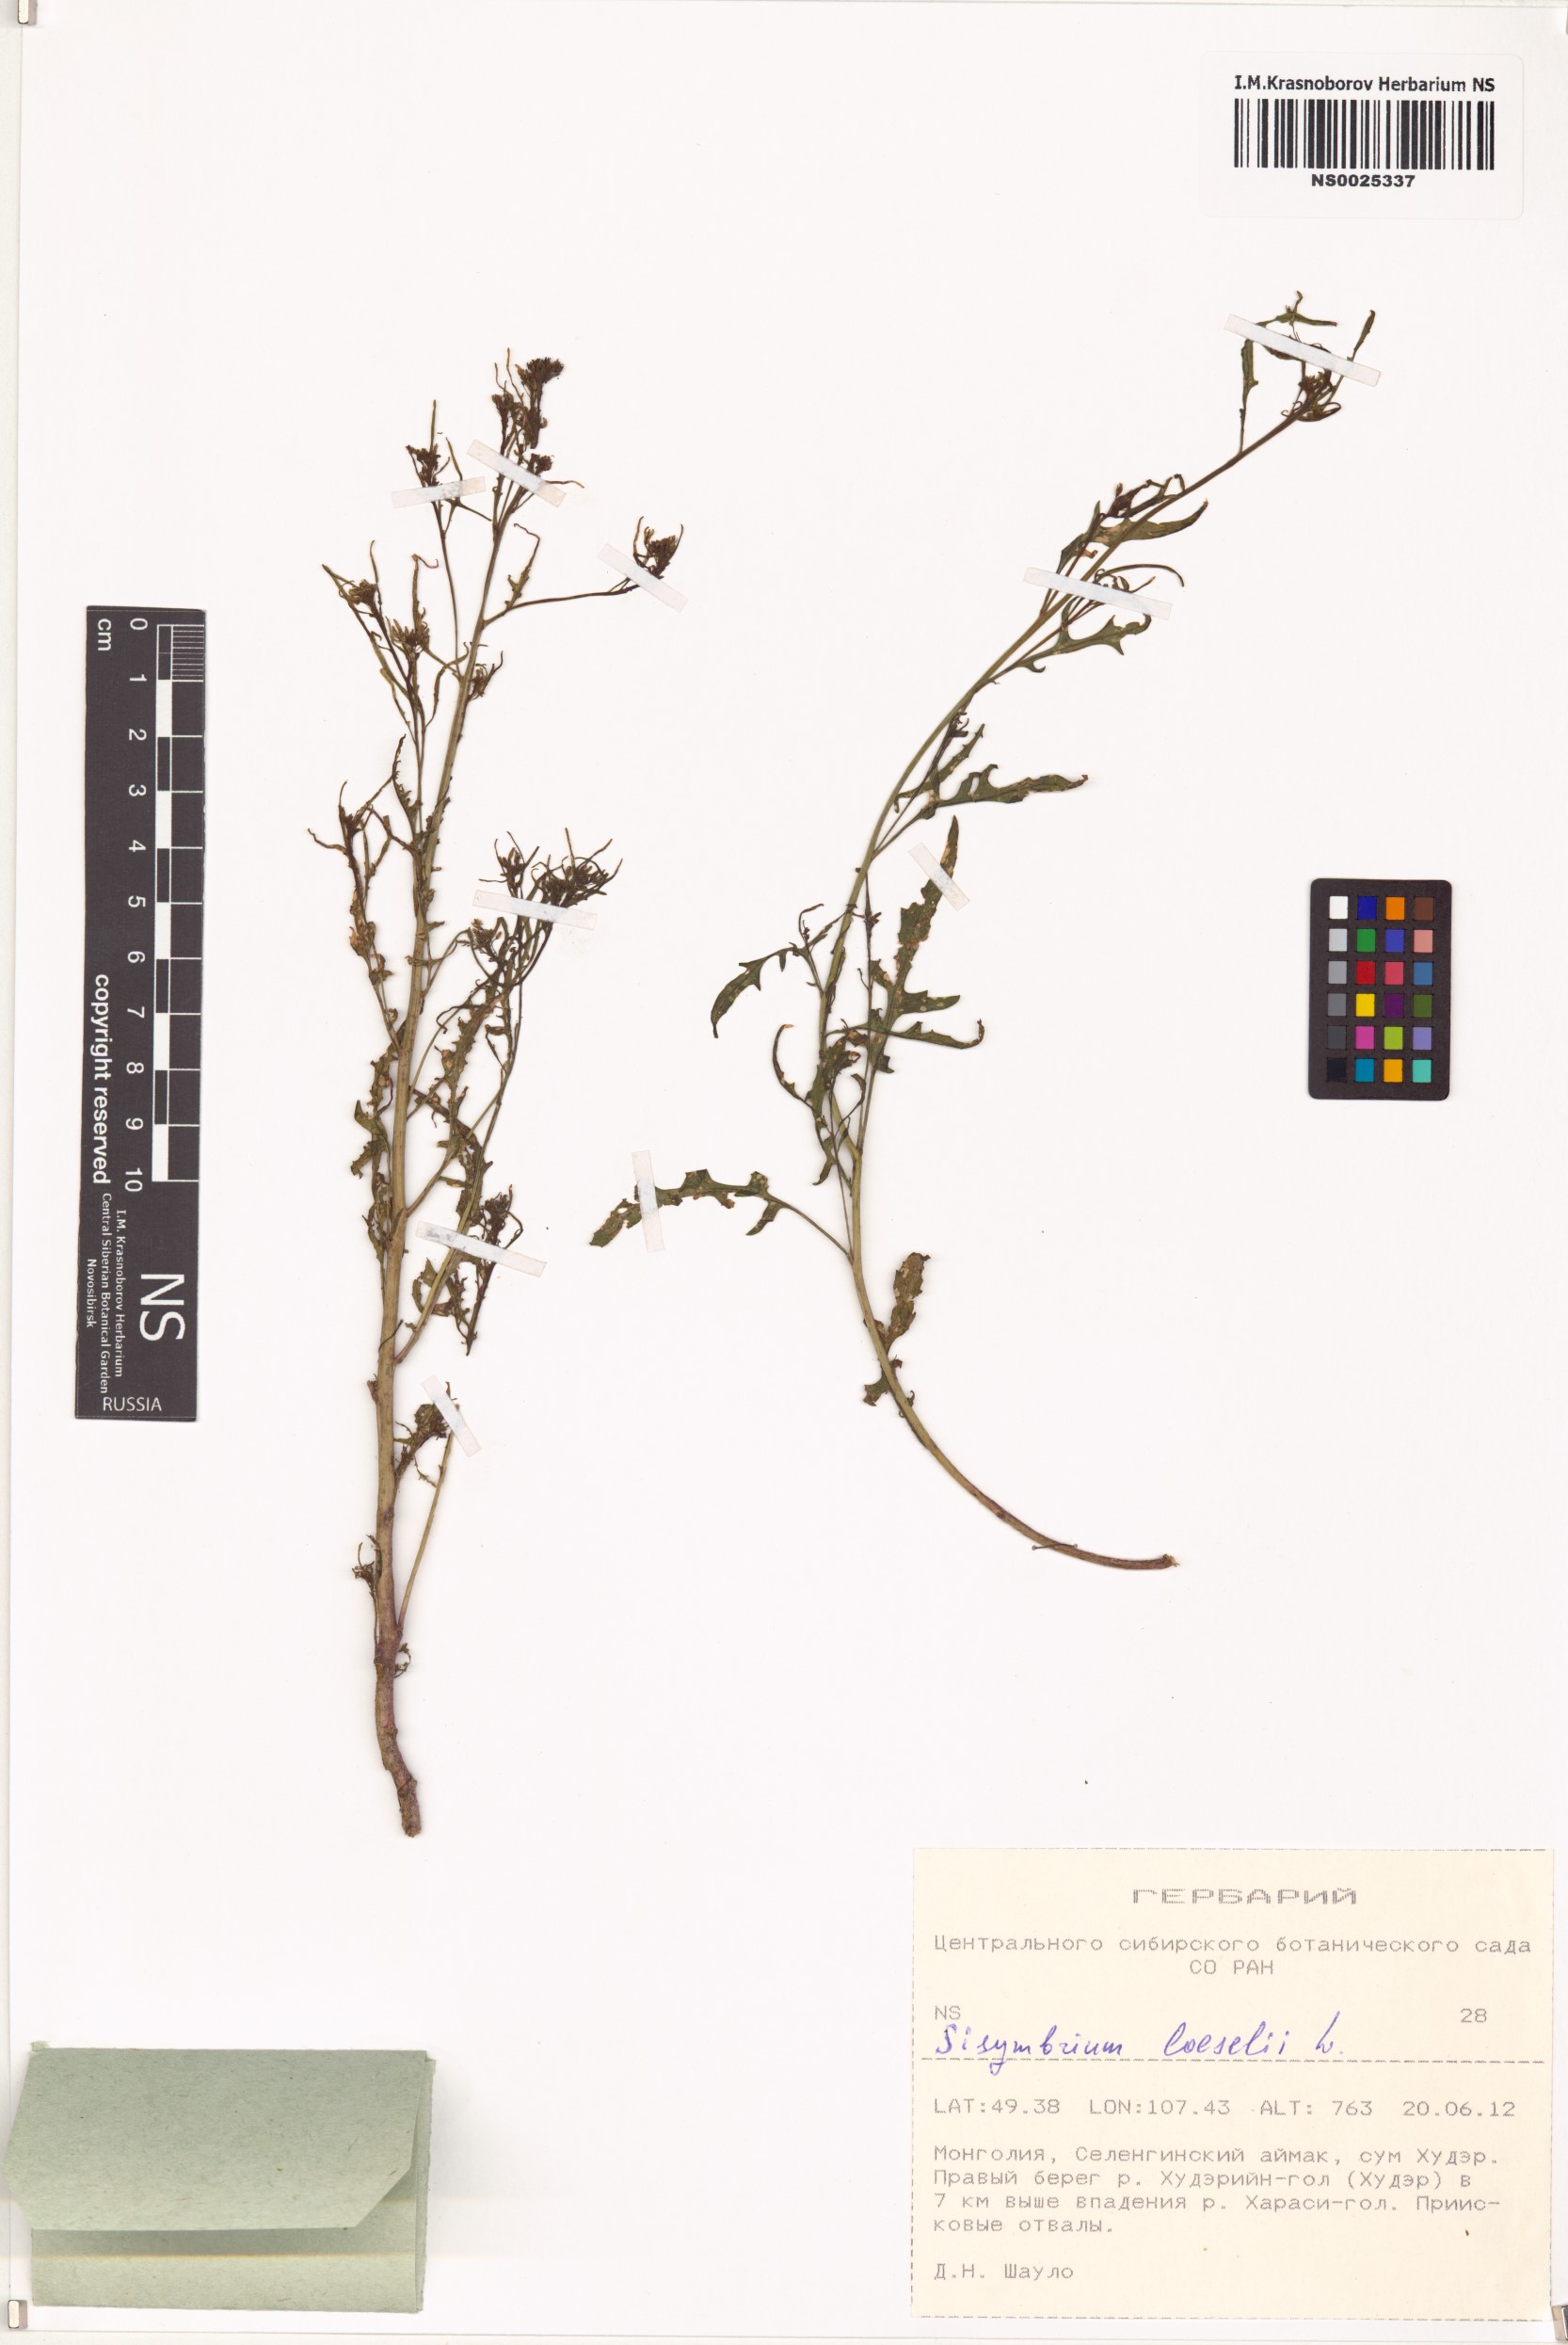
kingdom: Plantae
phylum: Tracheophyta
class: Magnoliopsida
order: Brassicales
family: Brassicaceae
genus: Sisymbrium
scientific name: Sisymbrium loeselii
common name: False london-rocket
